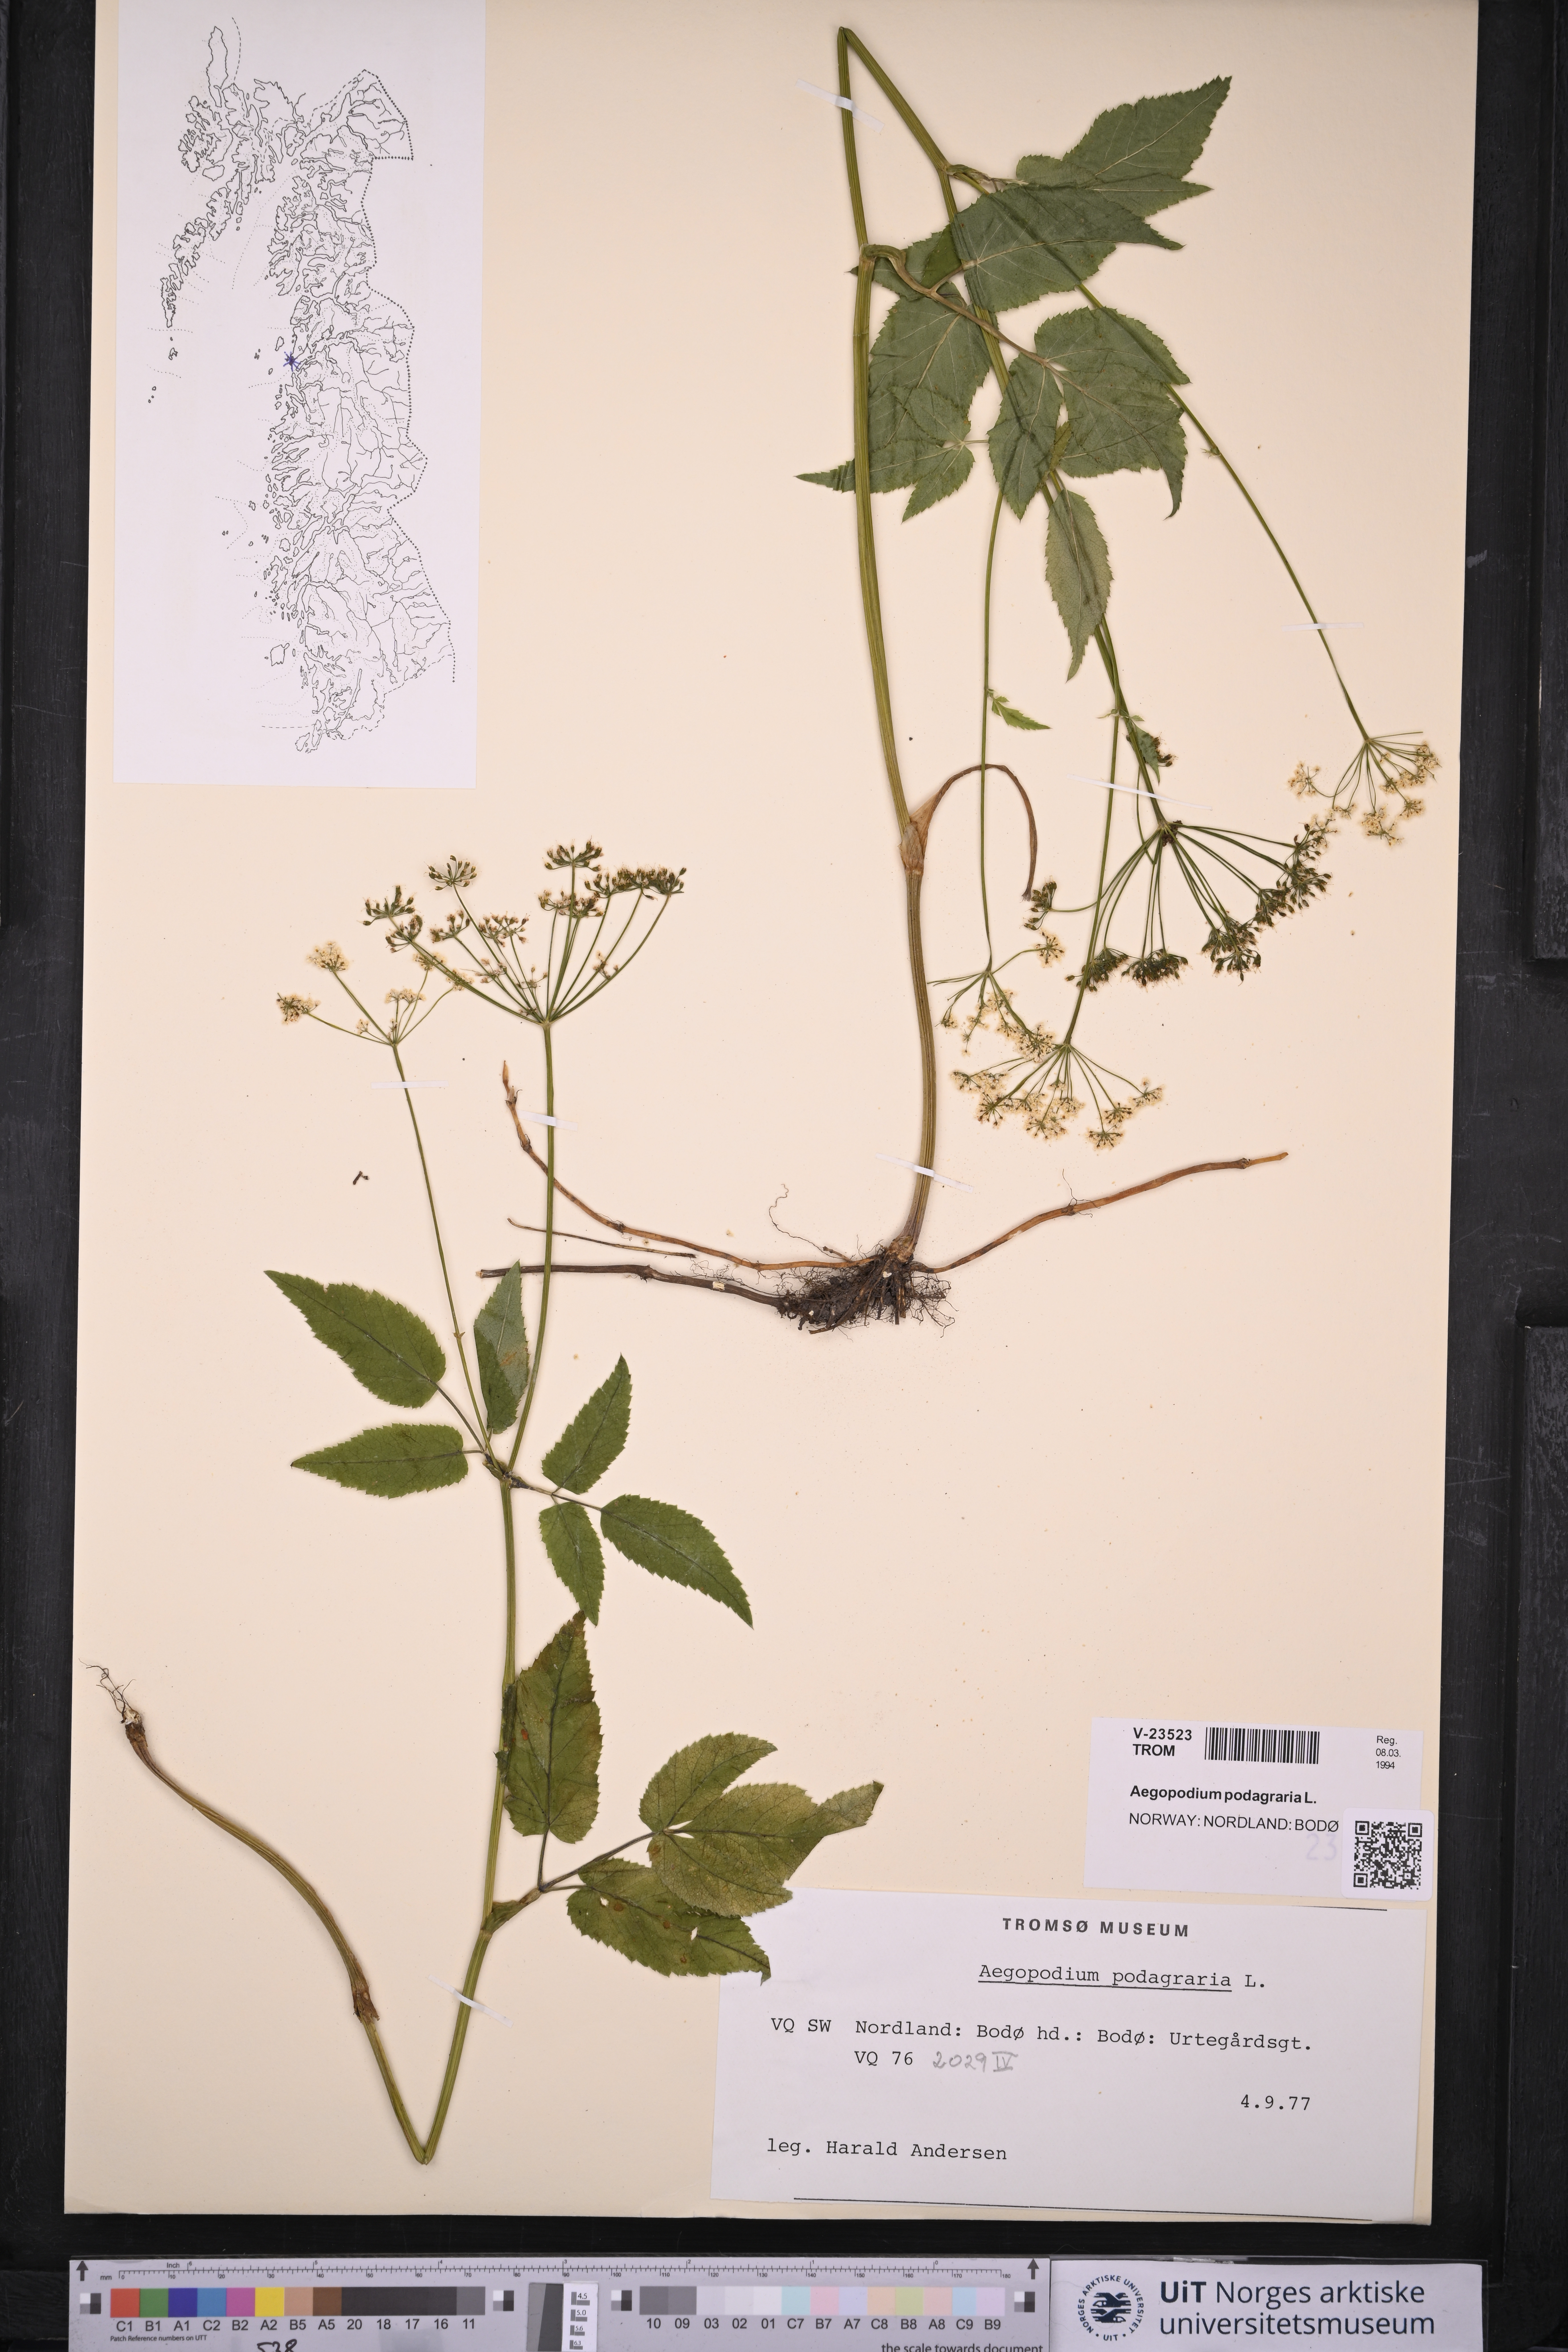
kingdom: Plantae
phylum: Tracheophyta
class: Magnoliopsida
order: Apiales
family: Apiaceae
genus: Aegopodium
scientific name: Aegopodium podagraria
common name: Ground-elder
